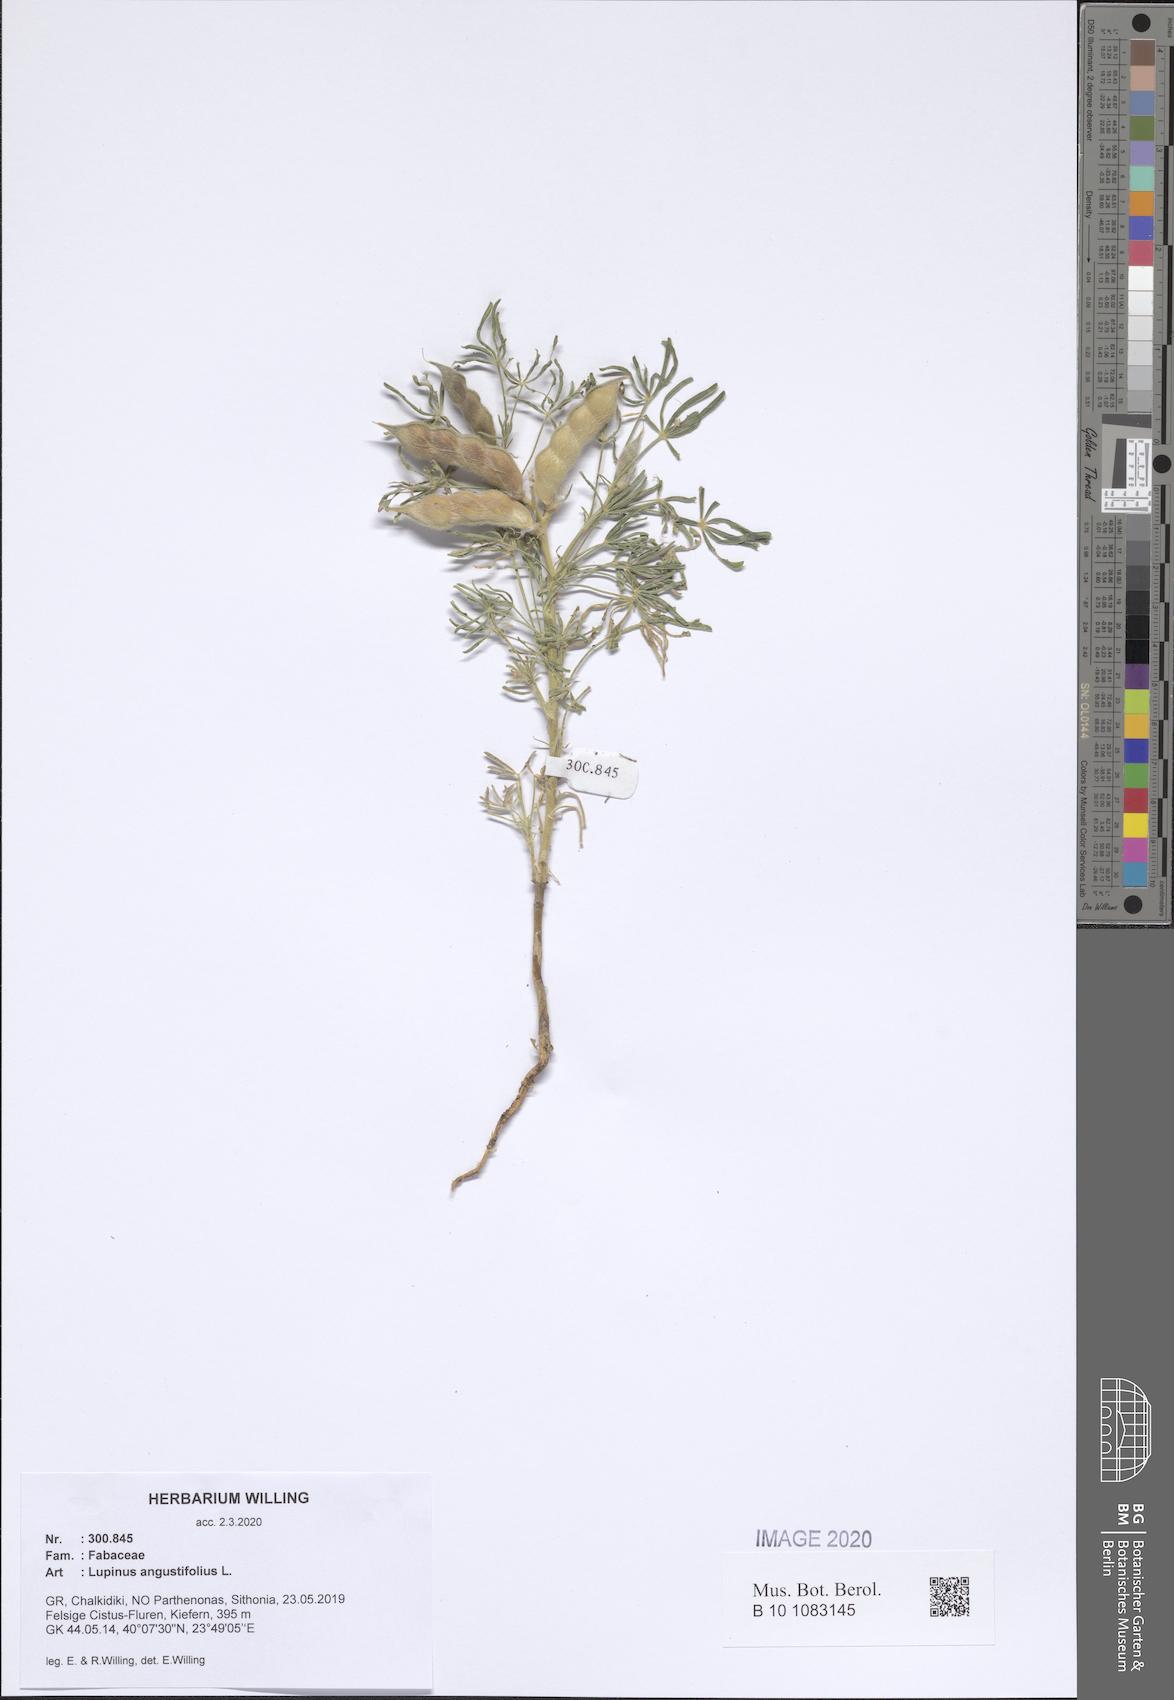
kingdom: Plantae
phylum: Tracheophyta
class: Magnoliopsida
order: Fabales
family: Fabaceae
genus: Lupinus
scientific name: Lupinus angustifolius
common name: Narrow-leaved lupin
